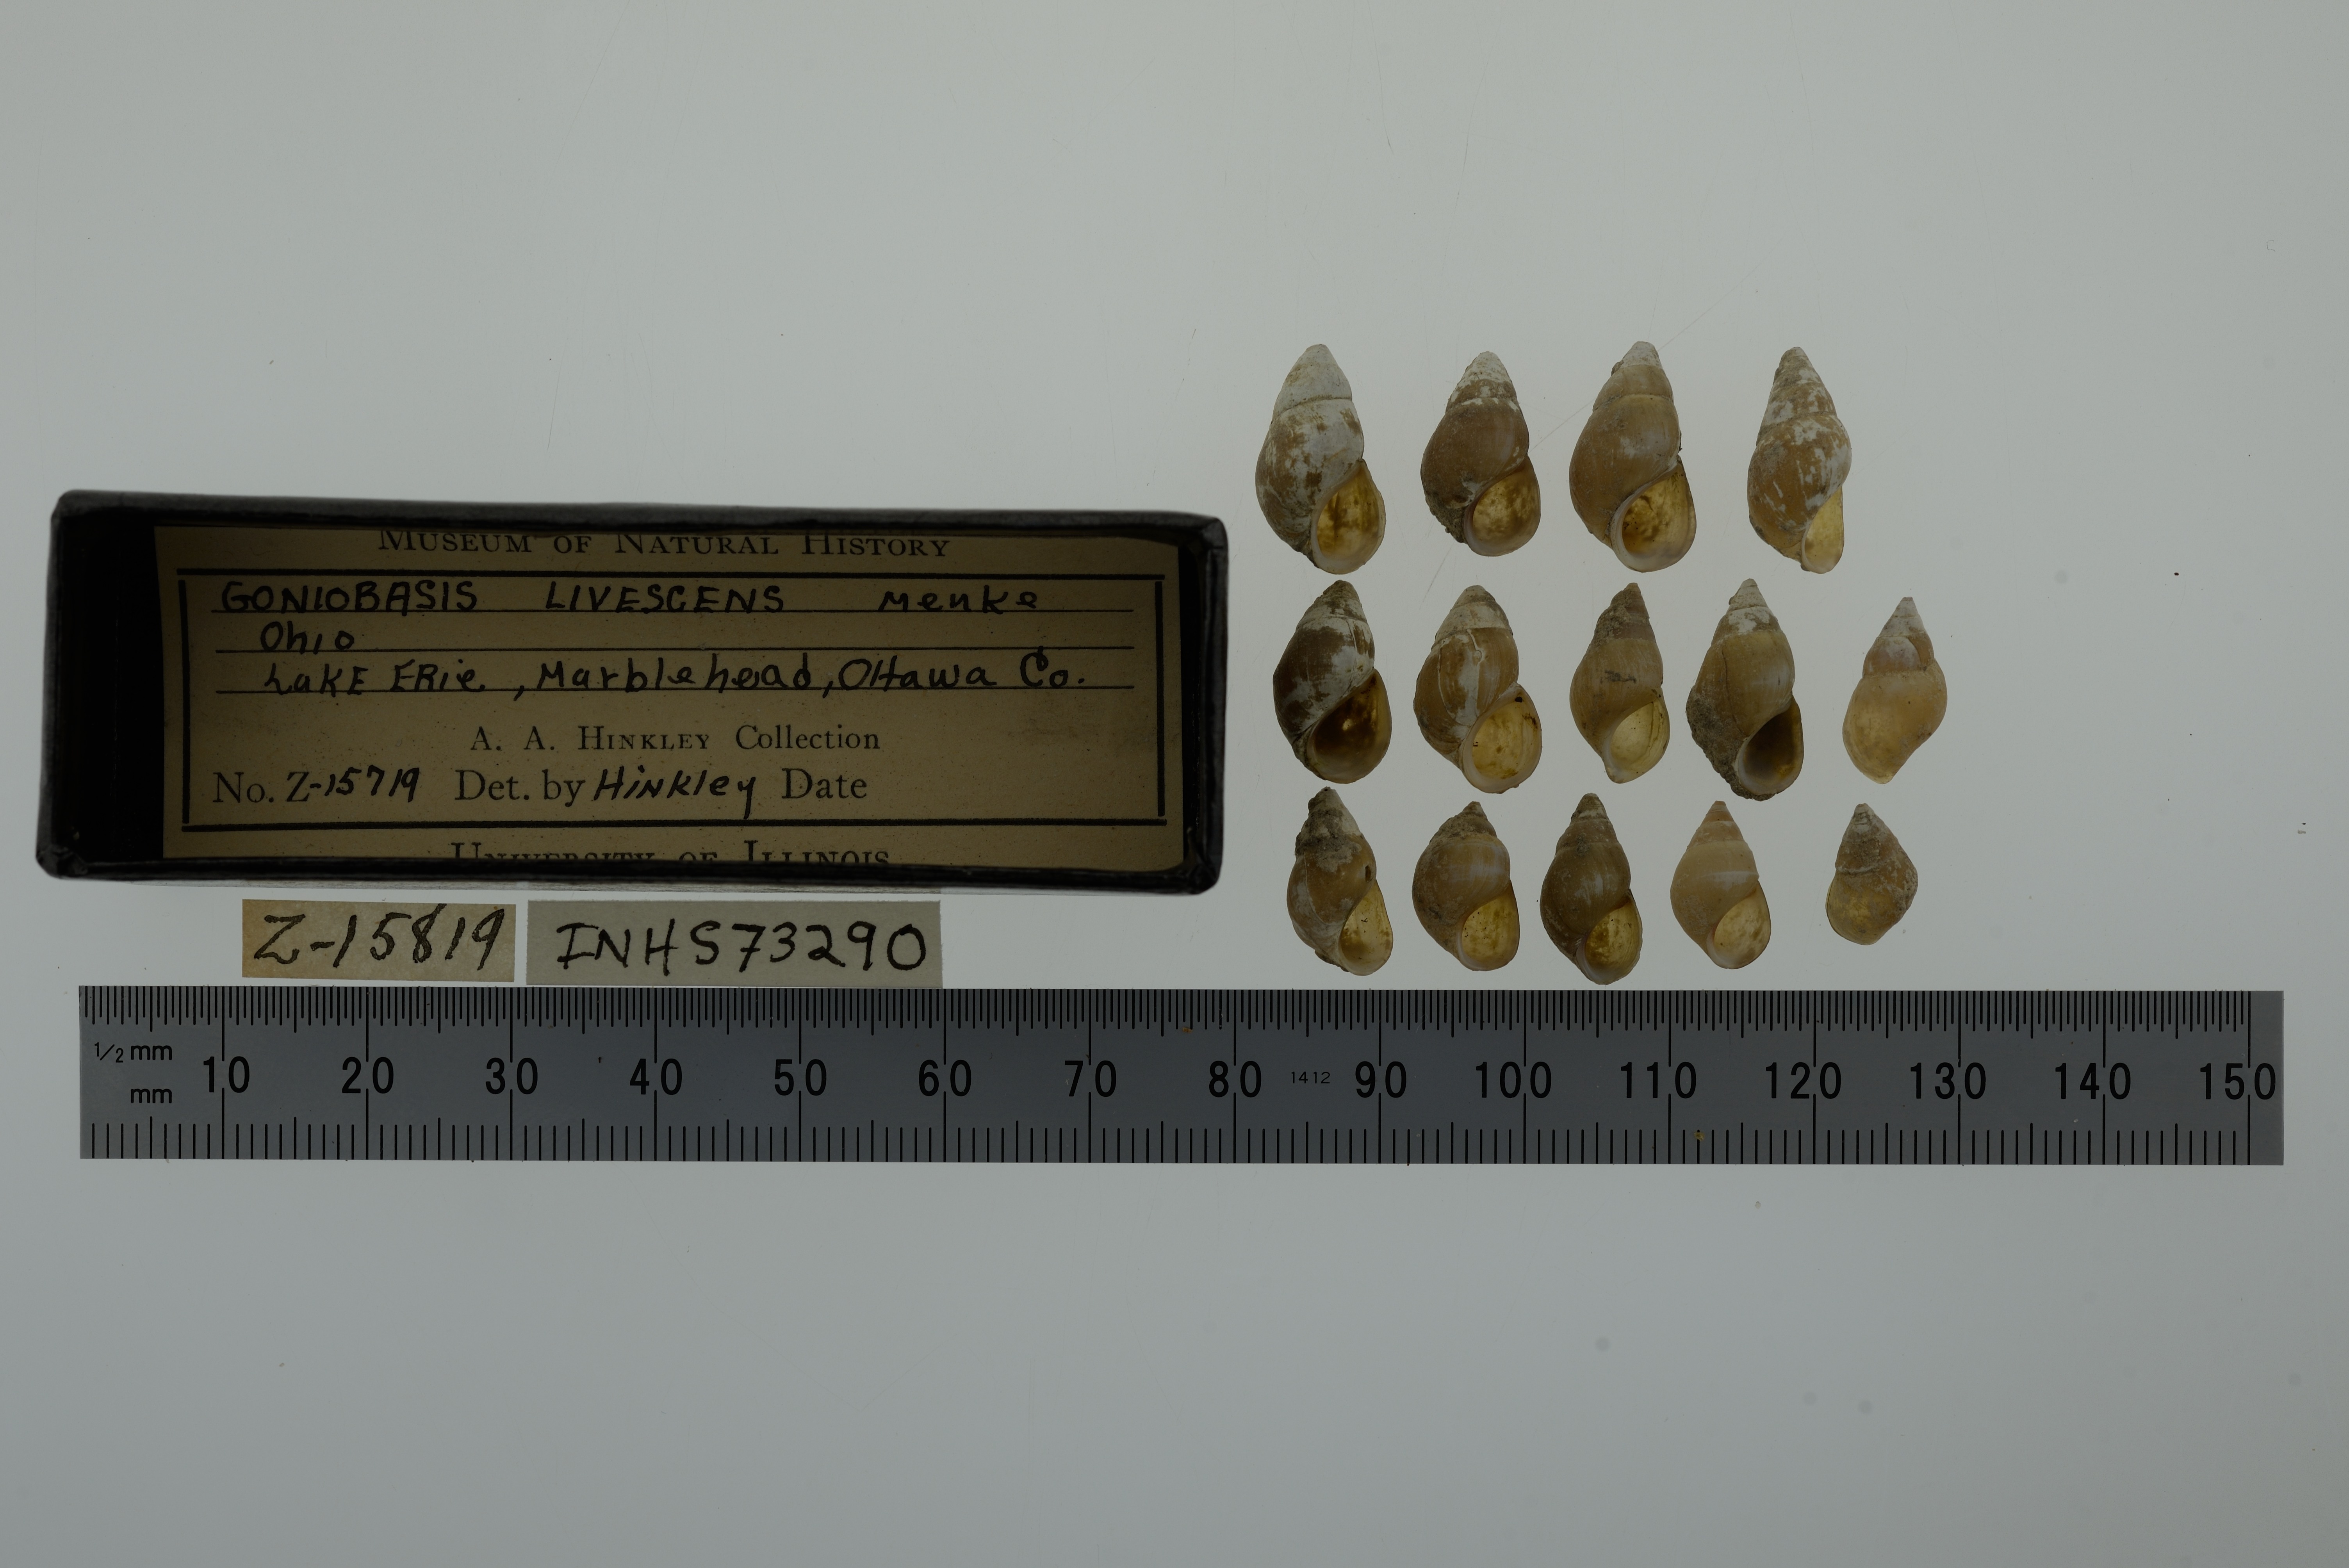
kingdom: Animalia
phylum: Mollusca
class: Gastropoda
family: Pleuroceridae
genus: Elimia
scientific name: Elimia livescens
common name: Liver elimia
